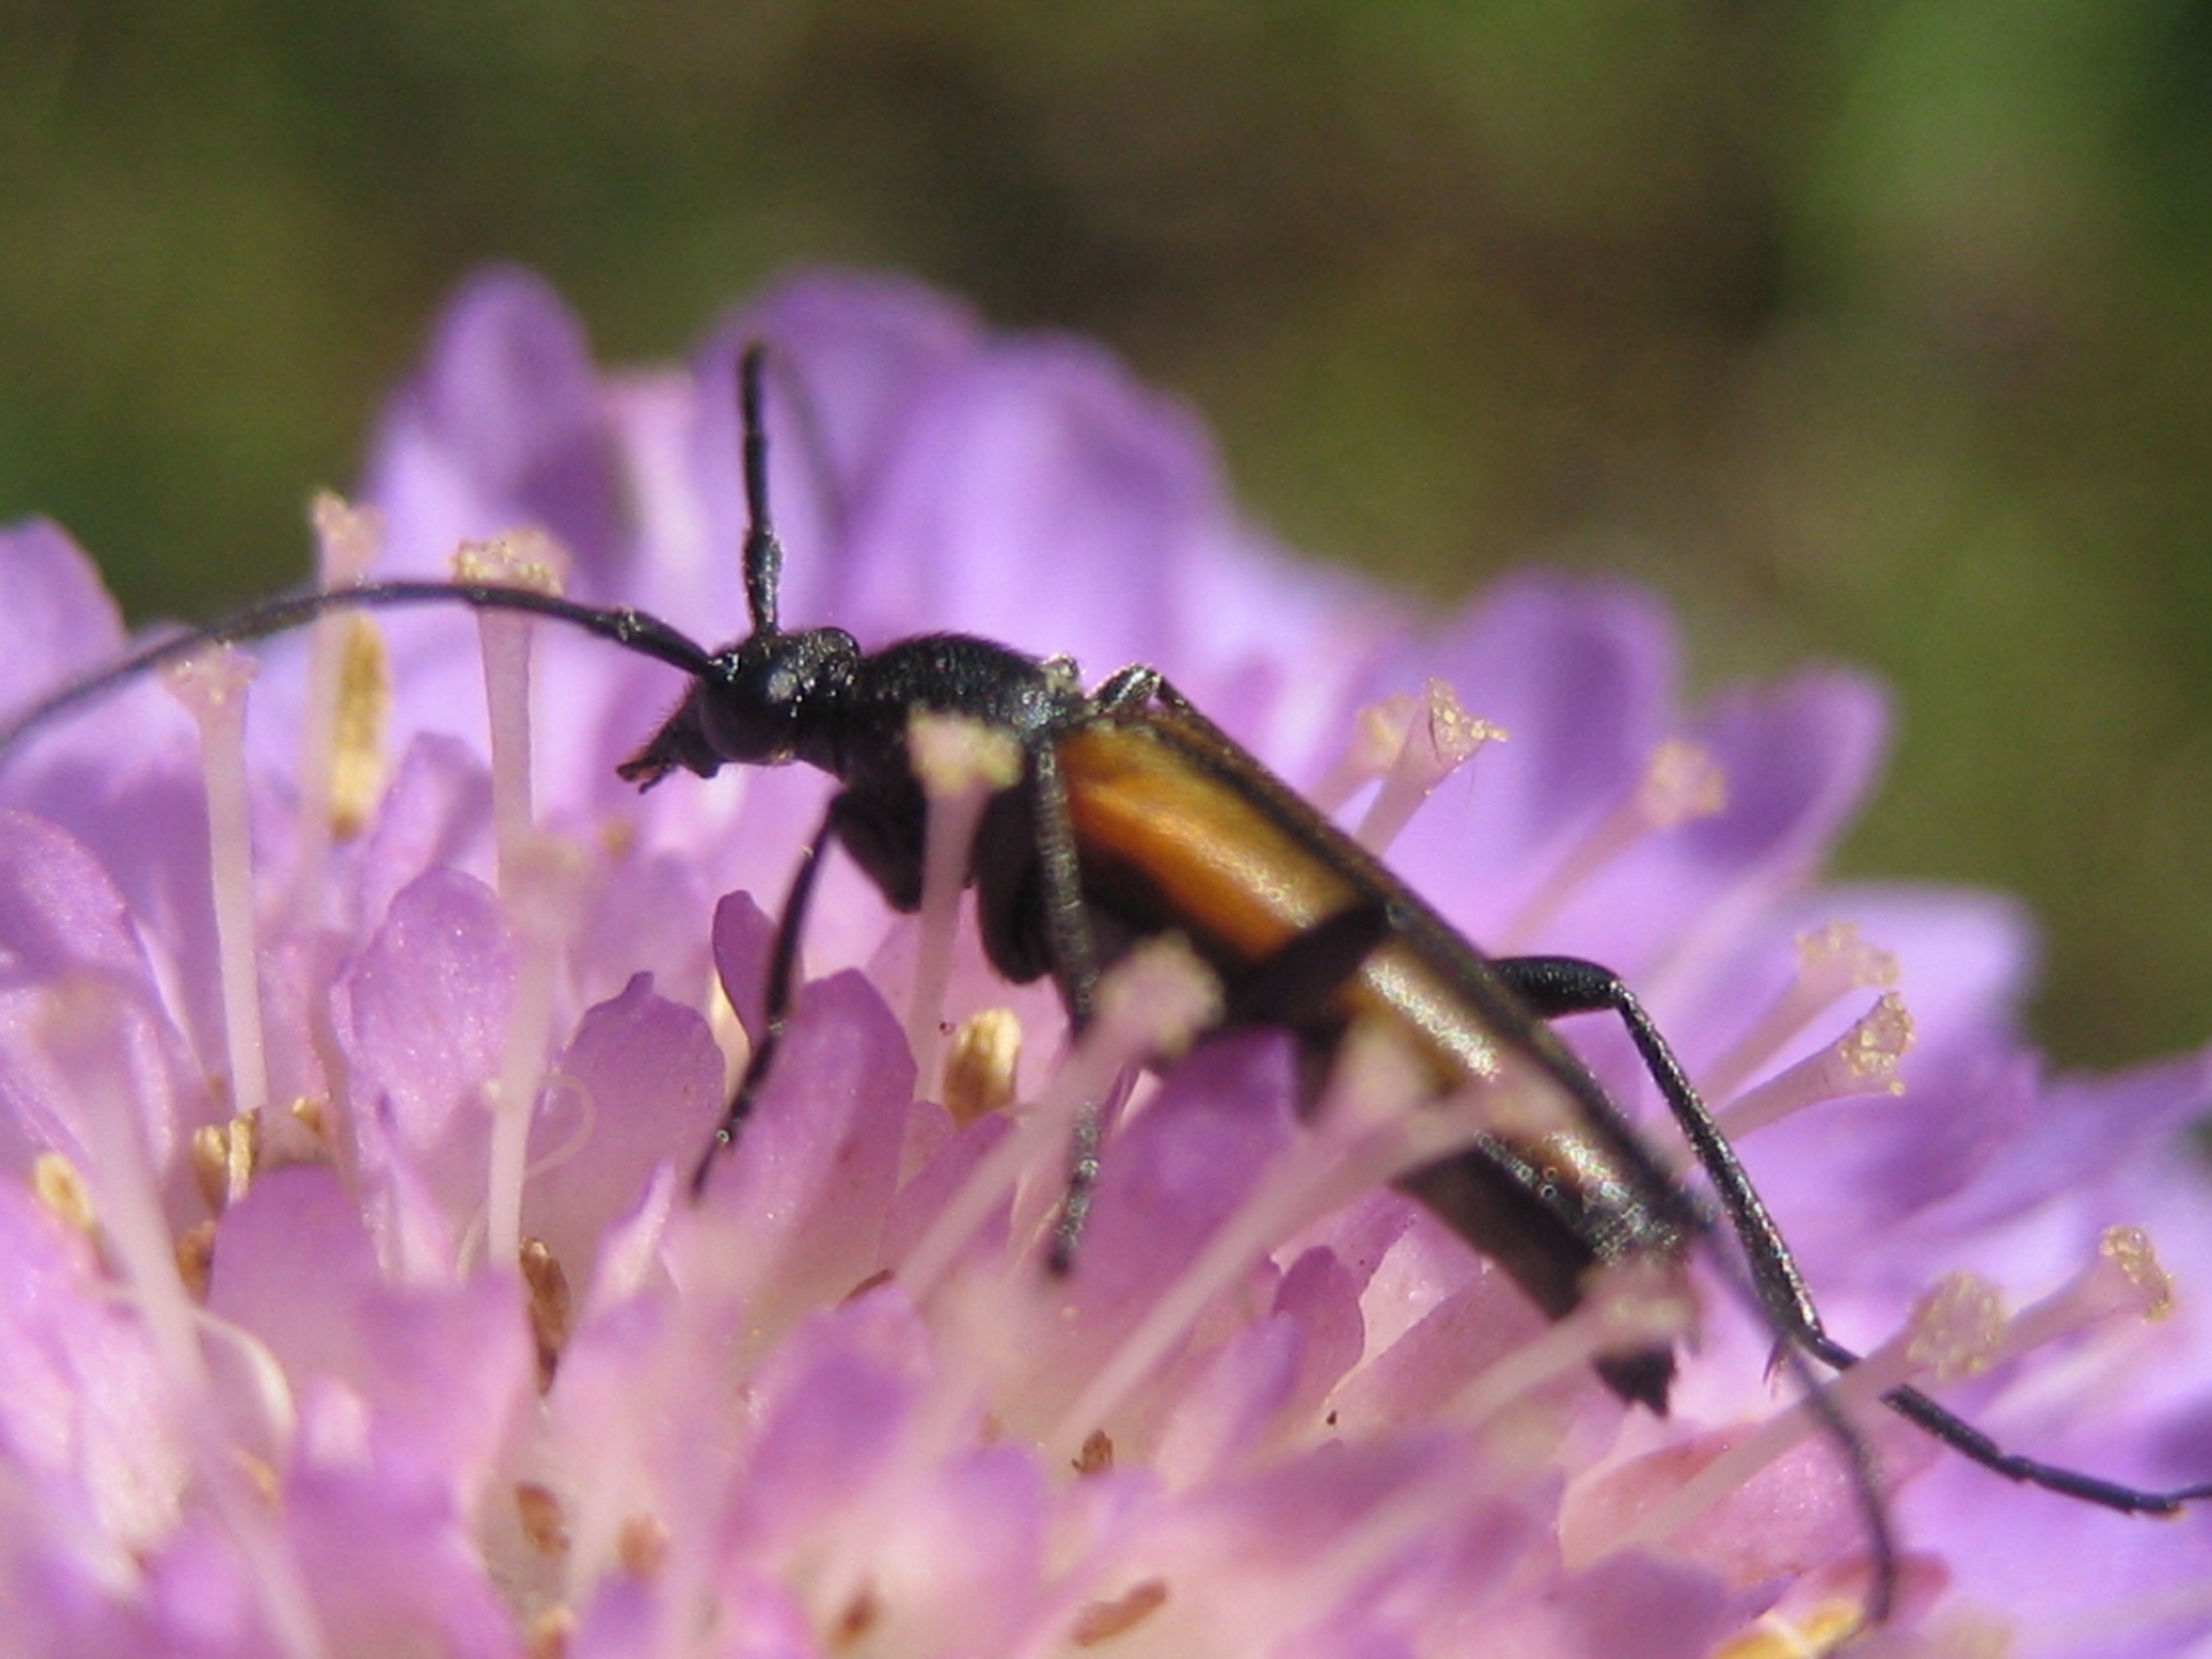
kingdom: Animalia
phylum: Arthropoda
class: Insecta
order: Coleoptera
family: Cerambycidae
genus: Stenurella
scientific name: Stenurella melanura
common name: Sortsømmet blomsterbuk
